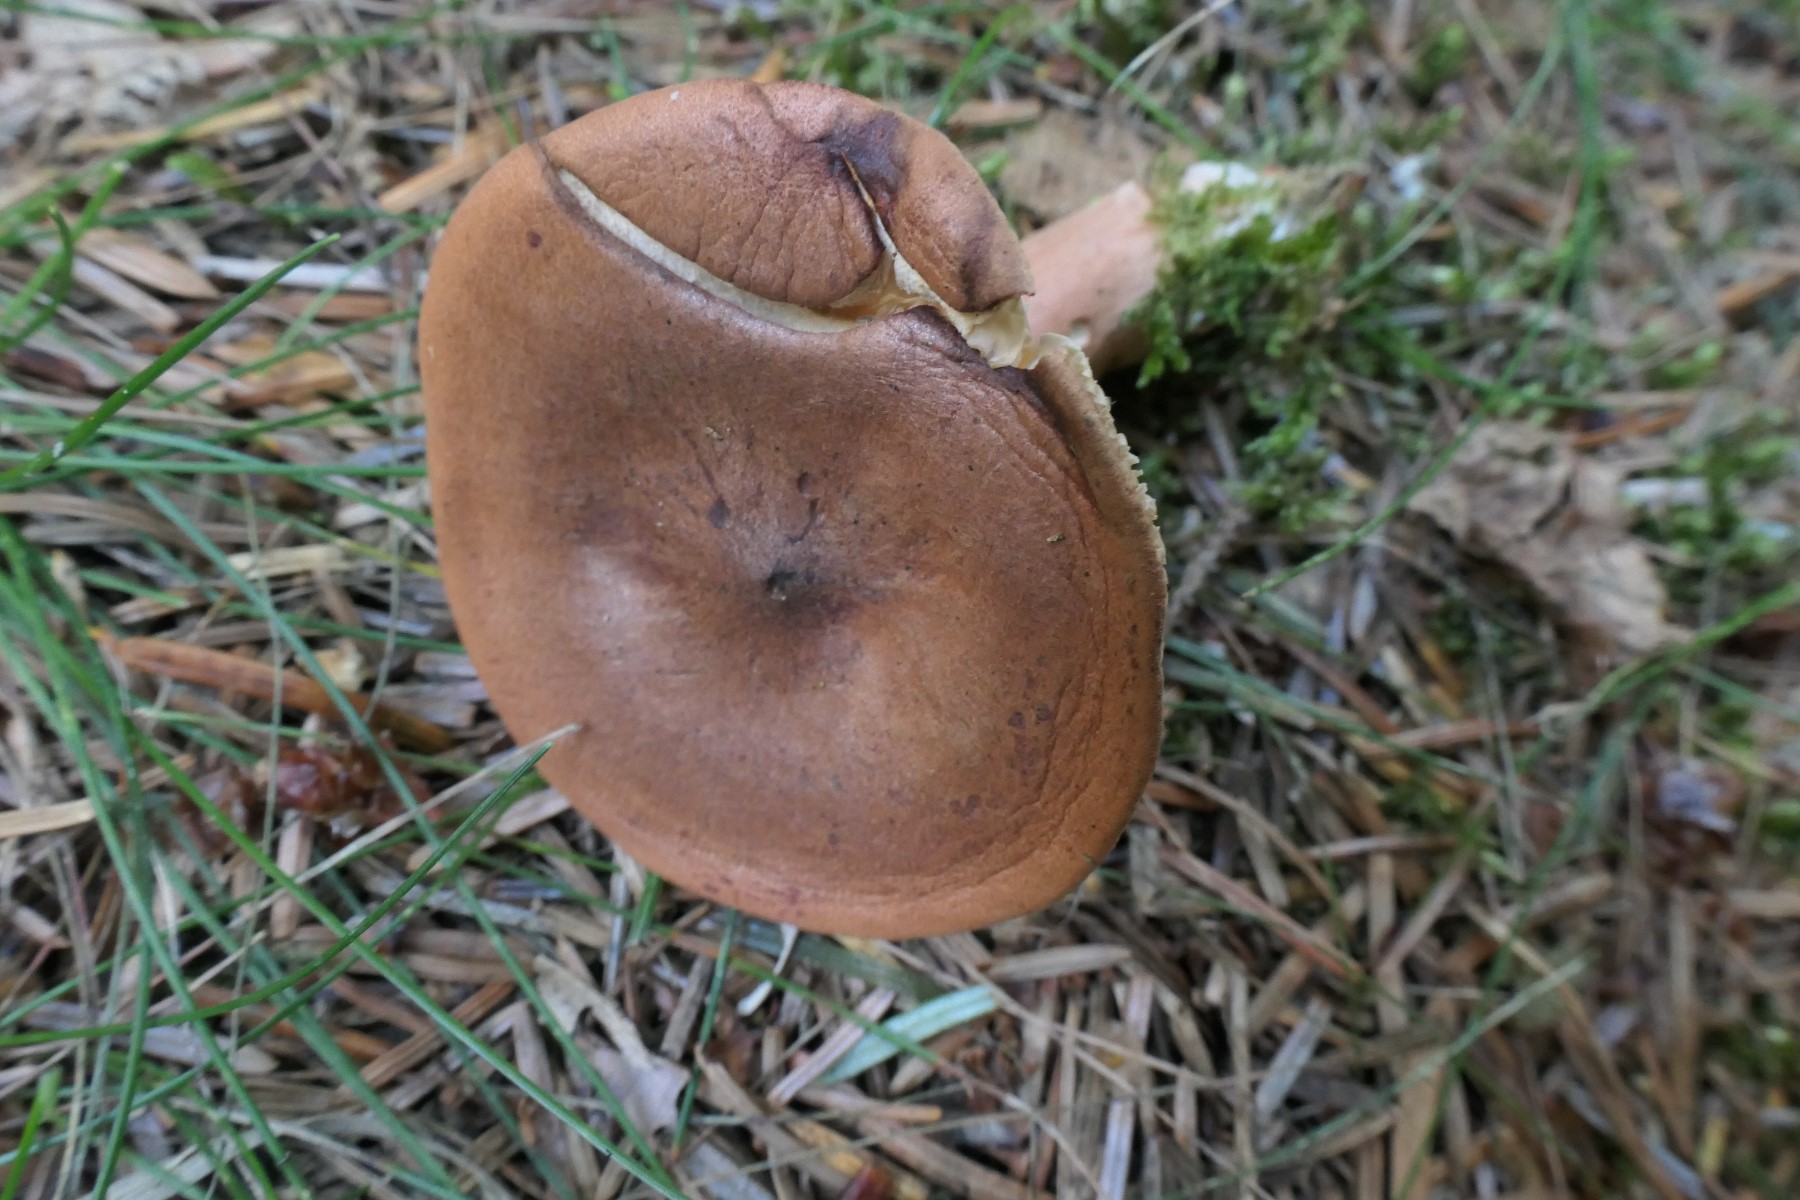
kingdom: Fungi
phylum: Basidiomycota
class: Agaricomycetes
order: Russulales
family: Russulaceae
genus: Lactarius
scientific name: Lactarius rufus
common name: rødbrun mælkehat
